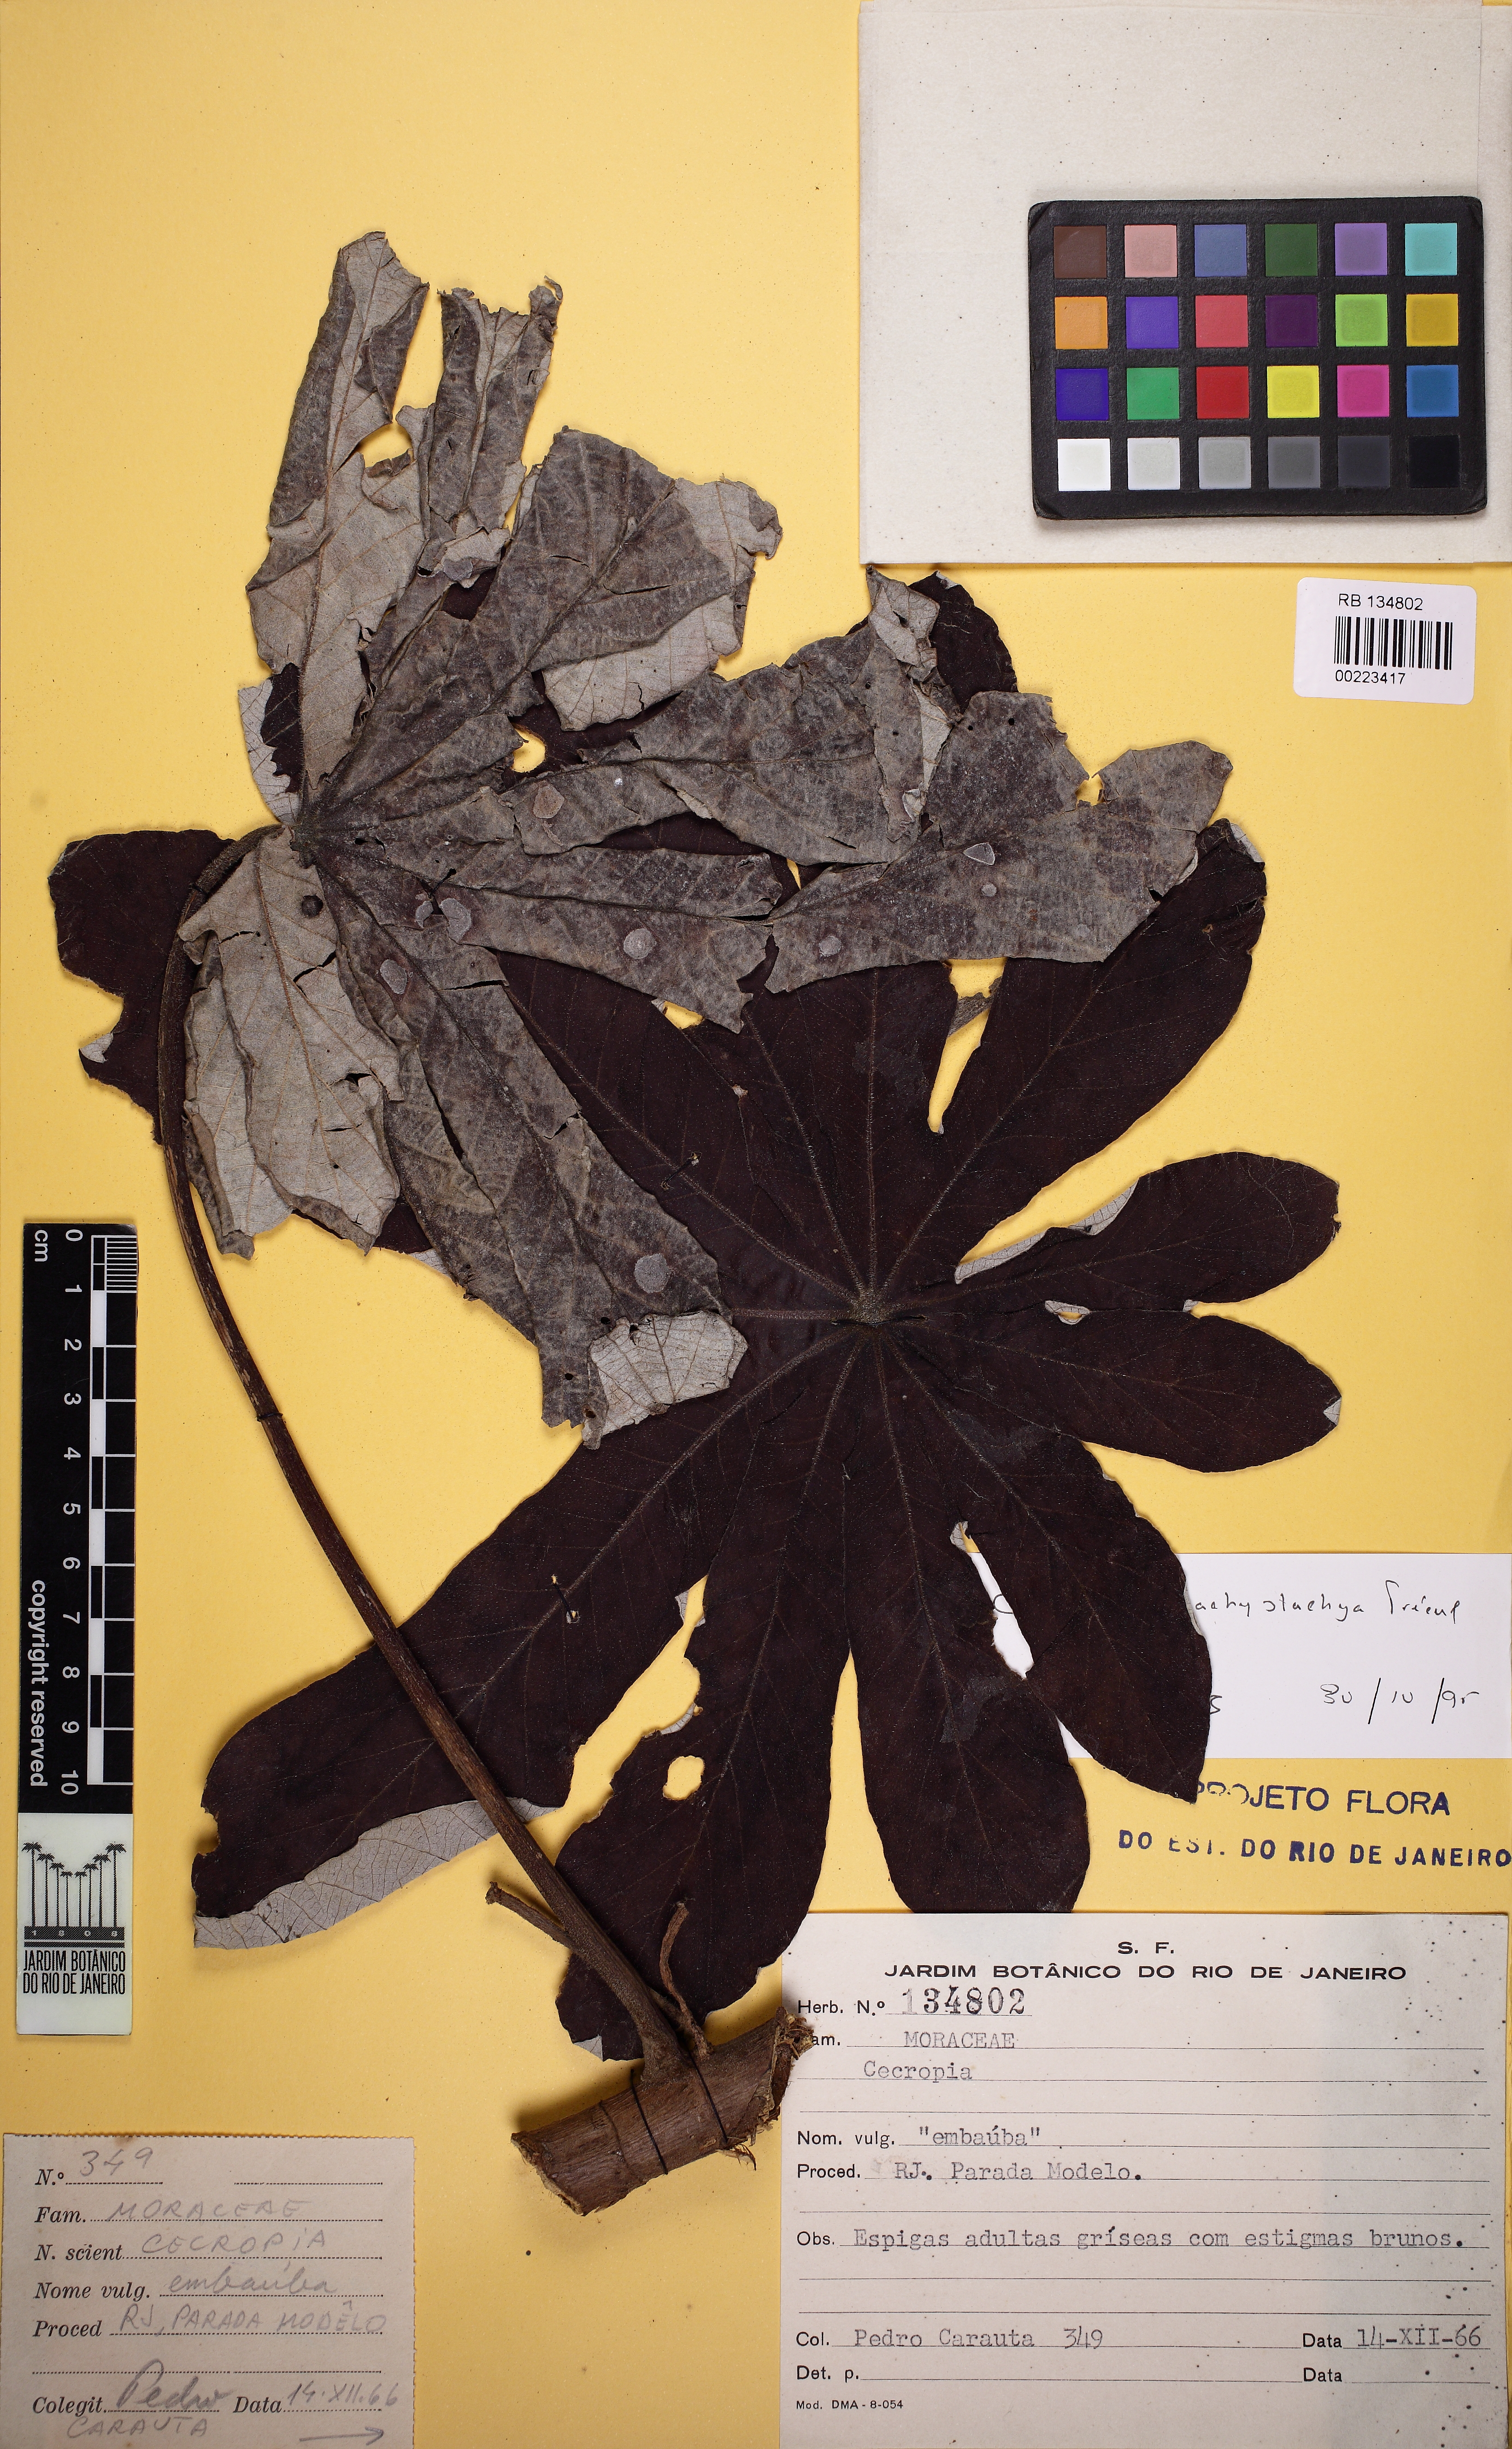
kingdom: Plantae
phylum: Tracheophyta
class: Magnoliopsida
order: Rosales
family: Urticaceae
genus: Cecropia
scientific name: Cecropia pachystachya
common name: Ambay pumpwood
